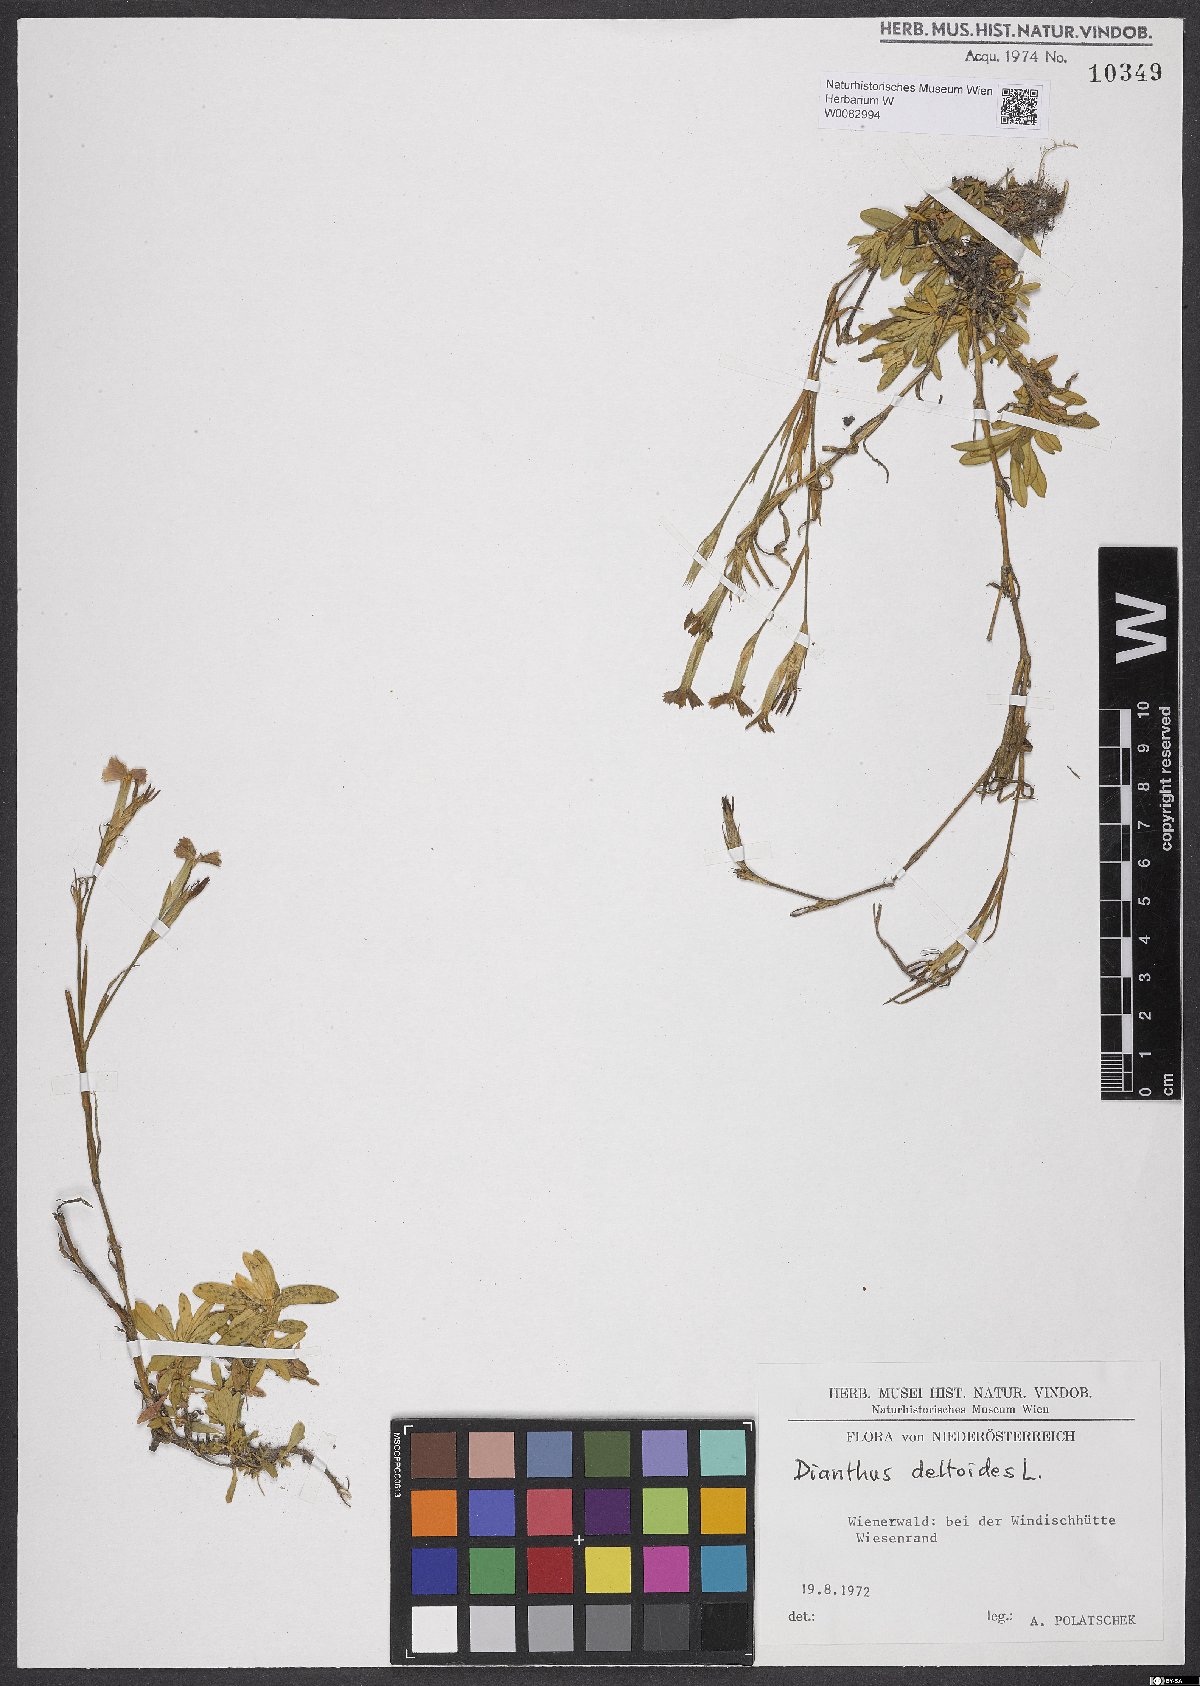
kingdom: Plantae
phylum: Tracheophyta
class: Magnoliopsida
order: Caryophyllales
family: Caryophyllaceae
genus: Dianthus
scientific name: Dianthus deltoides
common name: Maiden pink
